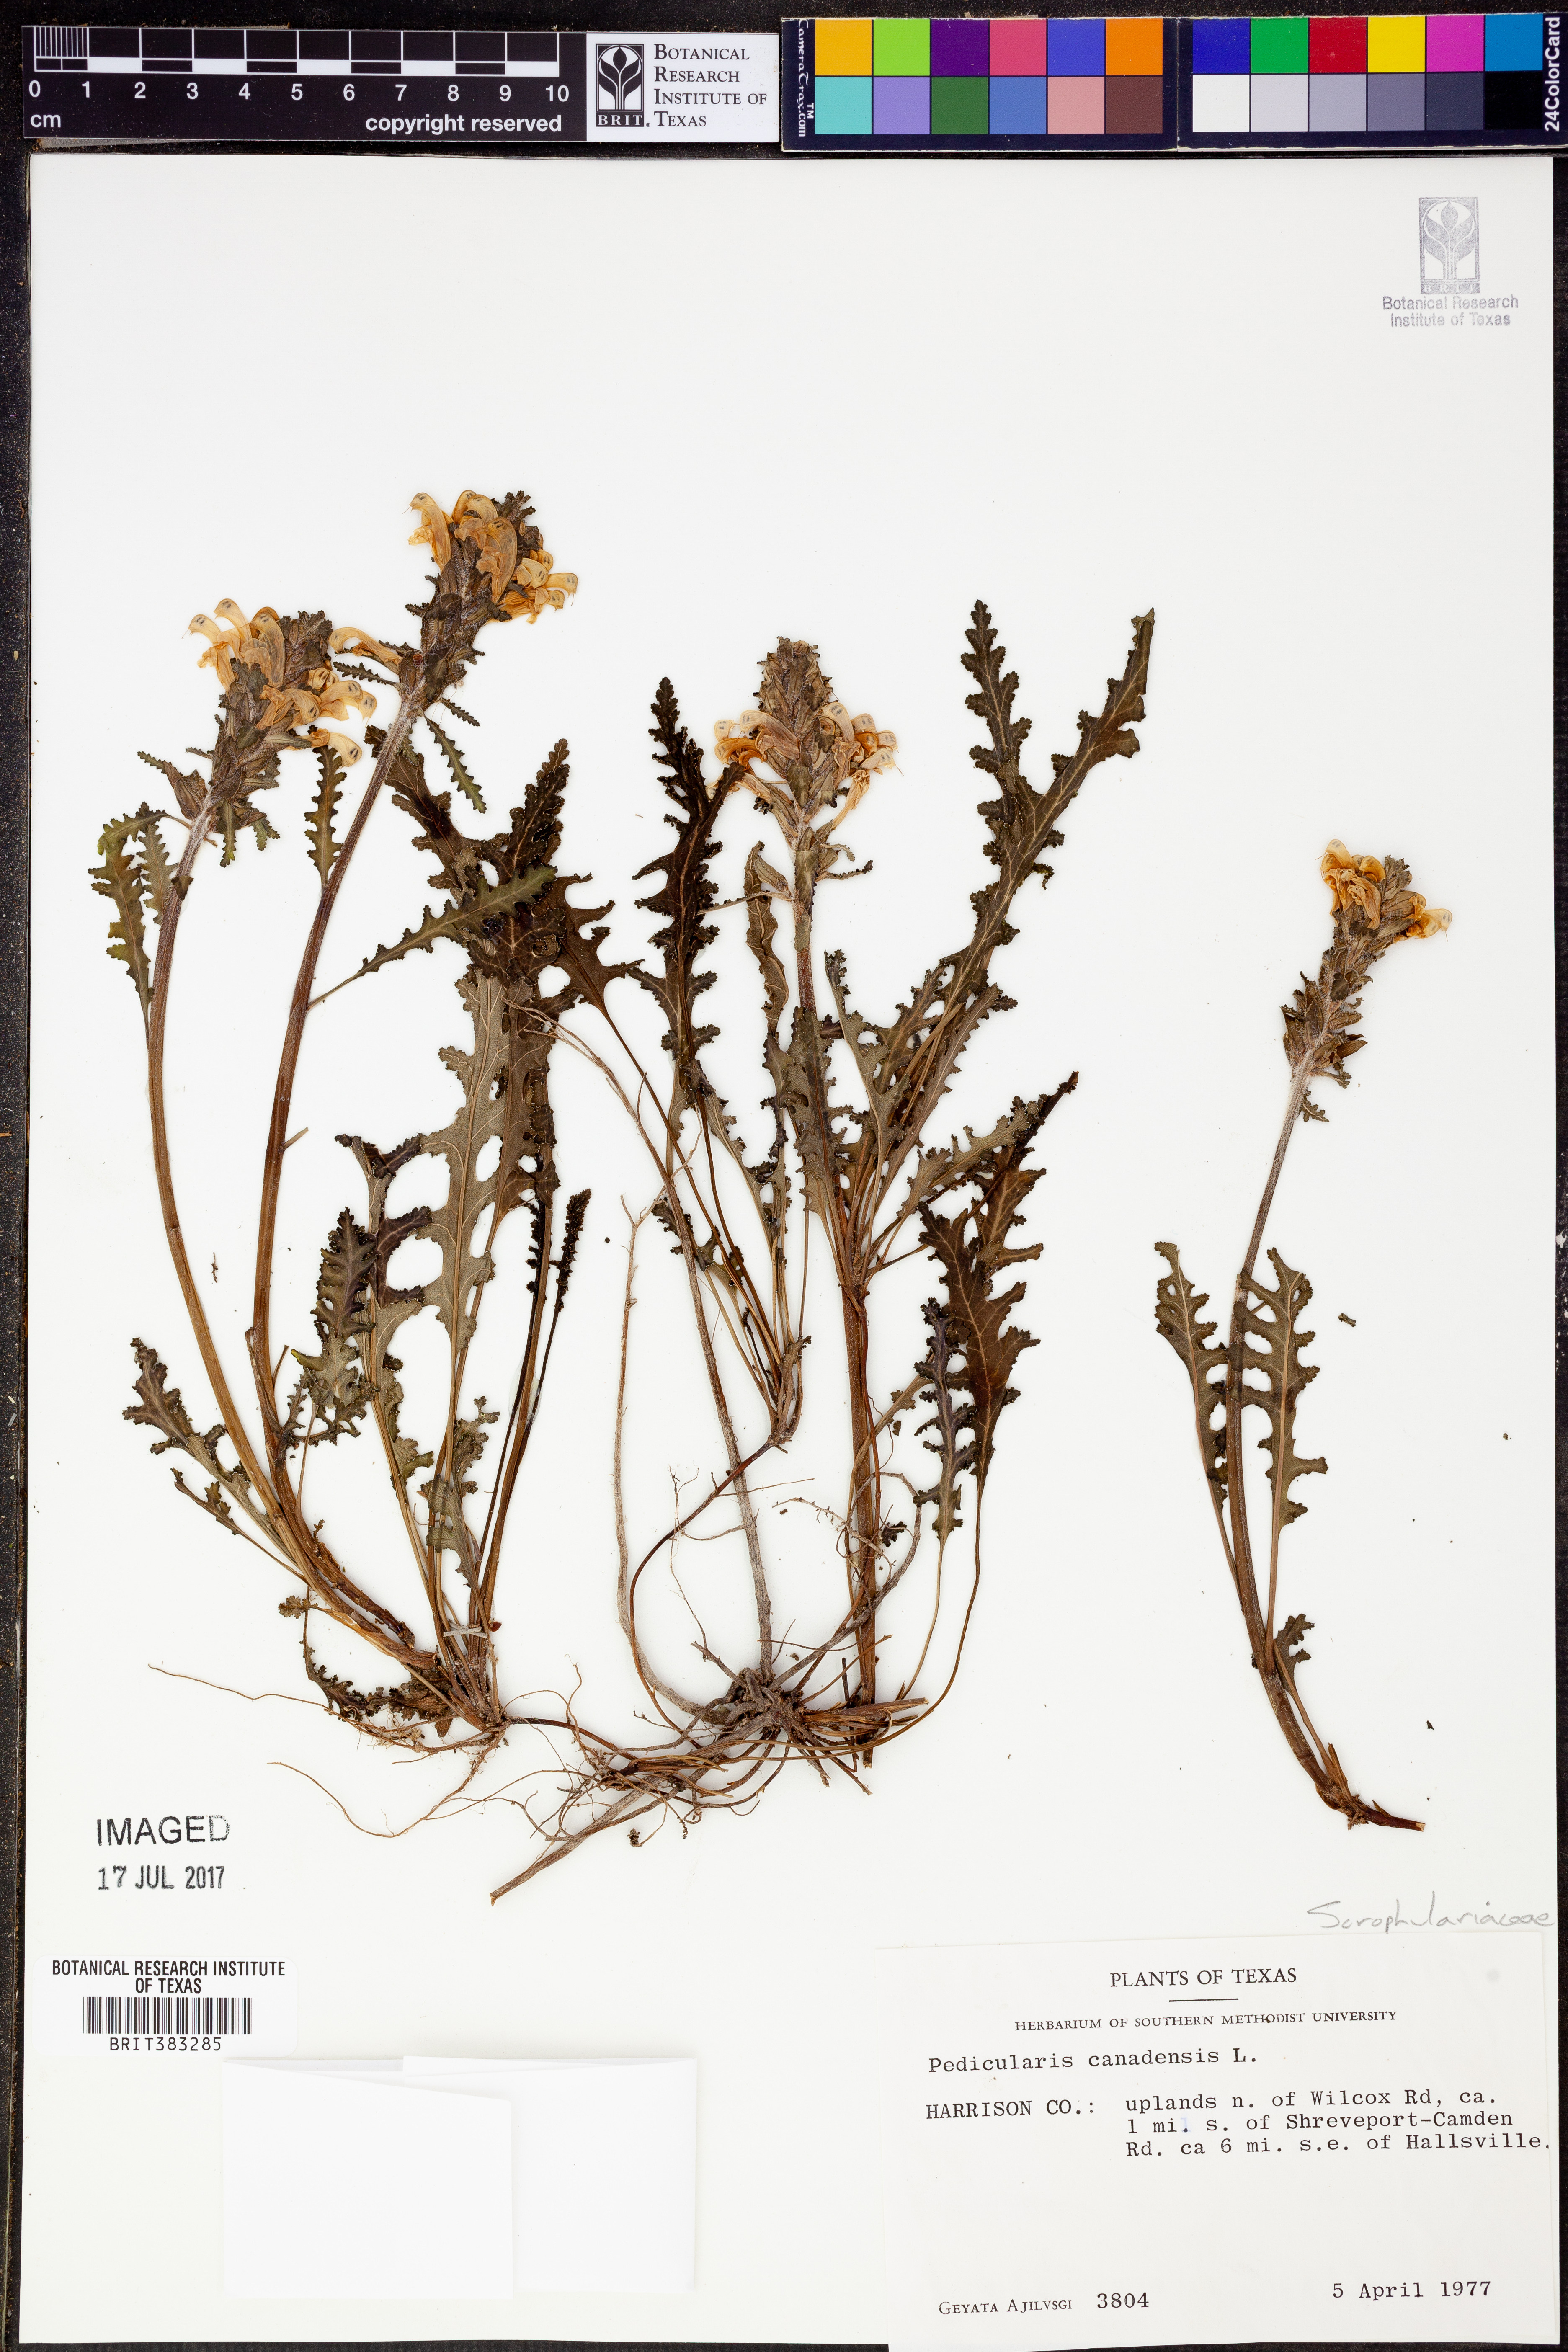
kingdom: Plantae
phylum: Tracheophyta
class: Magnoliopsida
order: Lamiales
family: Orobanchaceae
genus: Pedicularis
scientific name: Pedicularis canadensis
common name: Early lousewort
